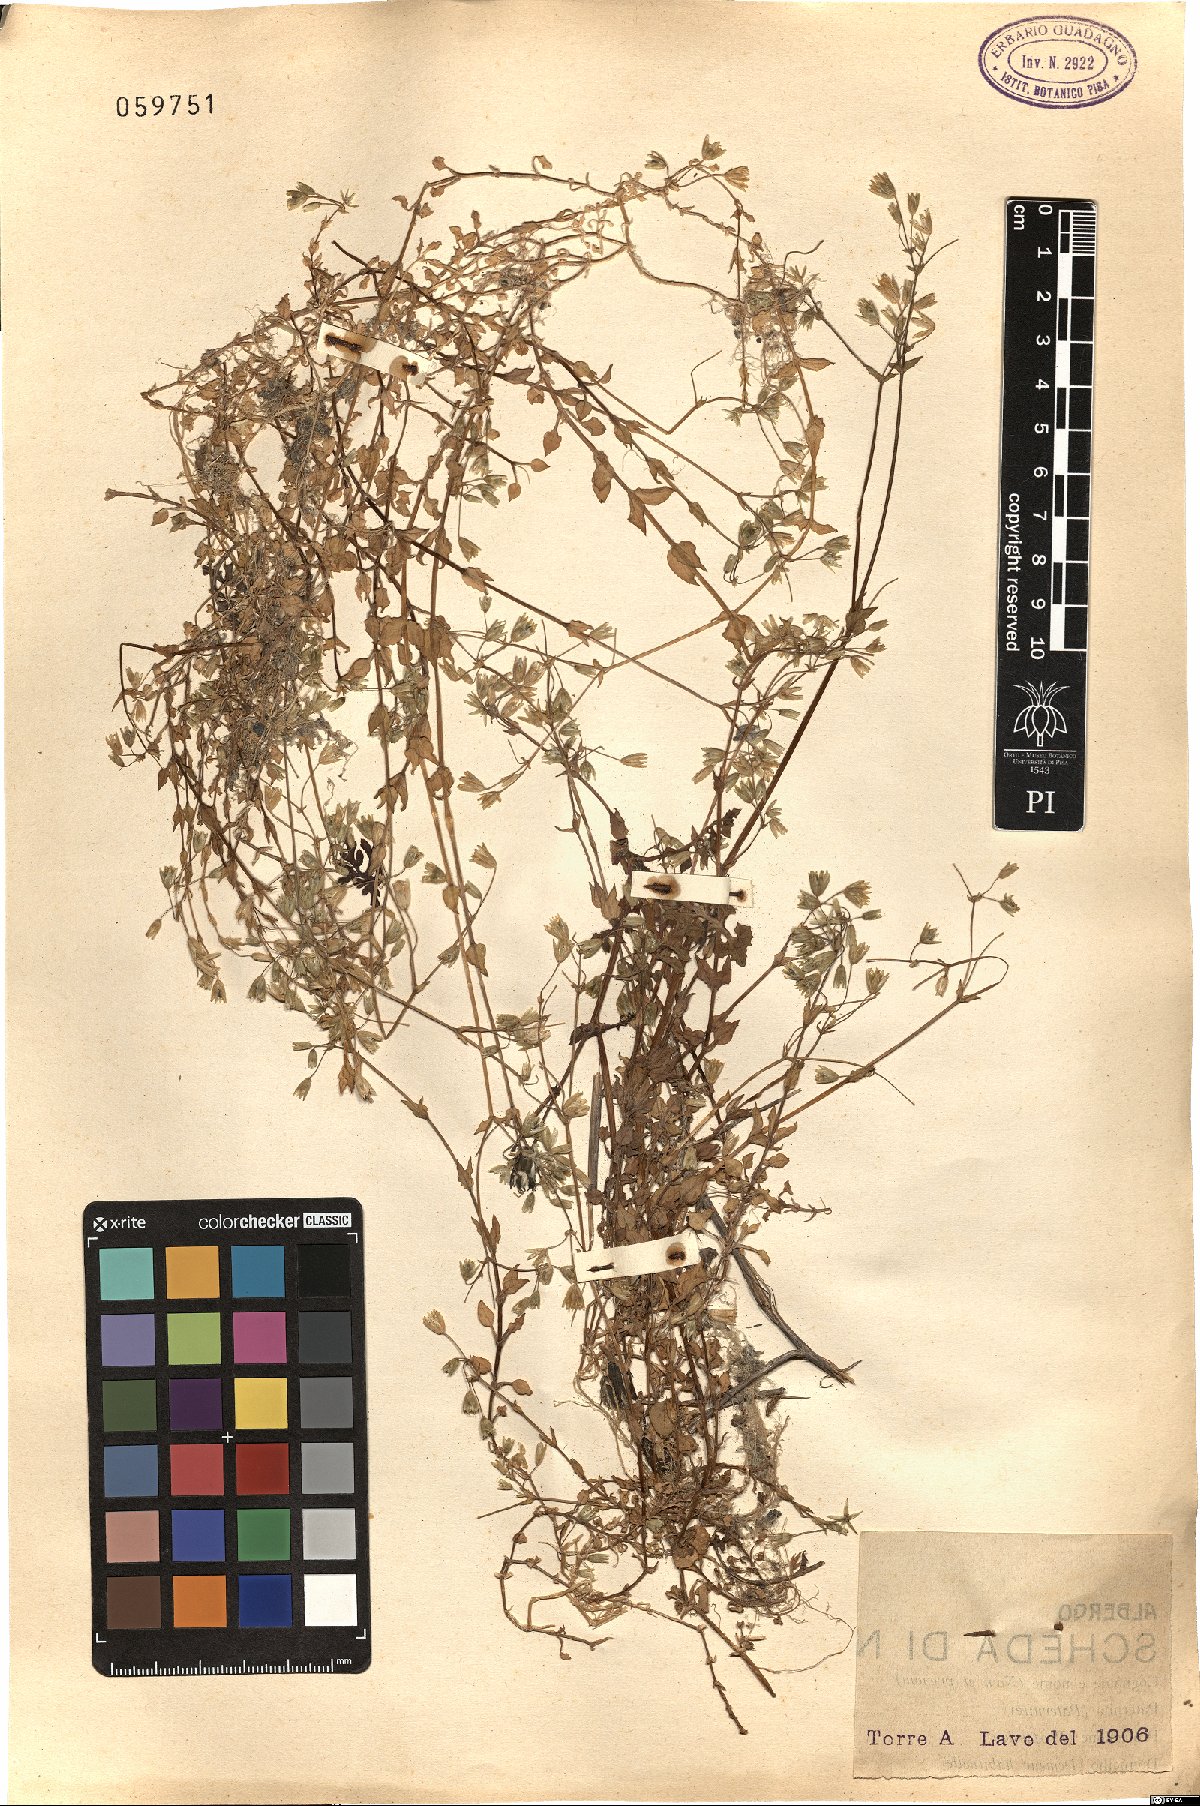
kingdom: Plantae
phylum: Tracheophyta
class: Magnoliopsida
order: Caryophyllales
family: Caryophyllaceae
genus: Cerastium
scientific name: Cerastium
